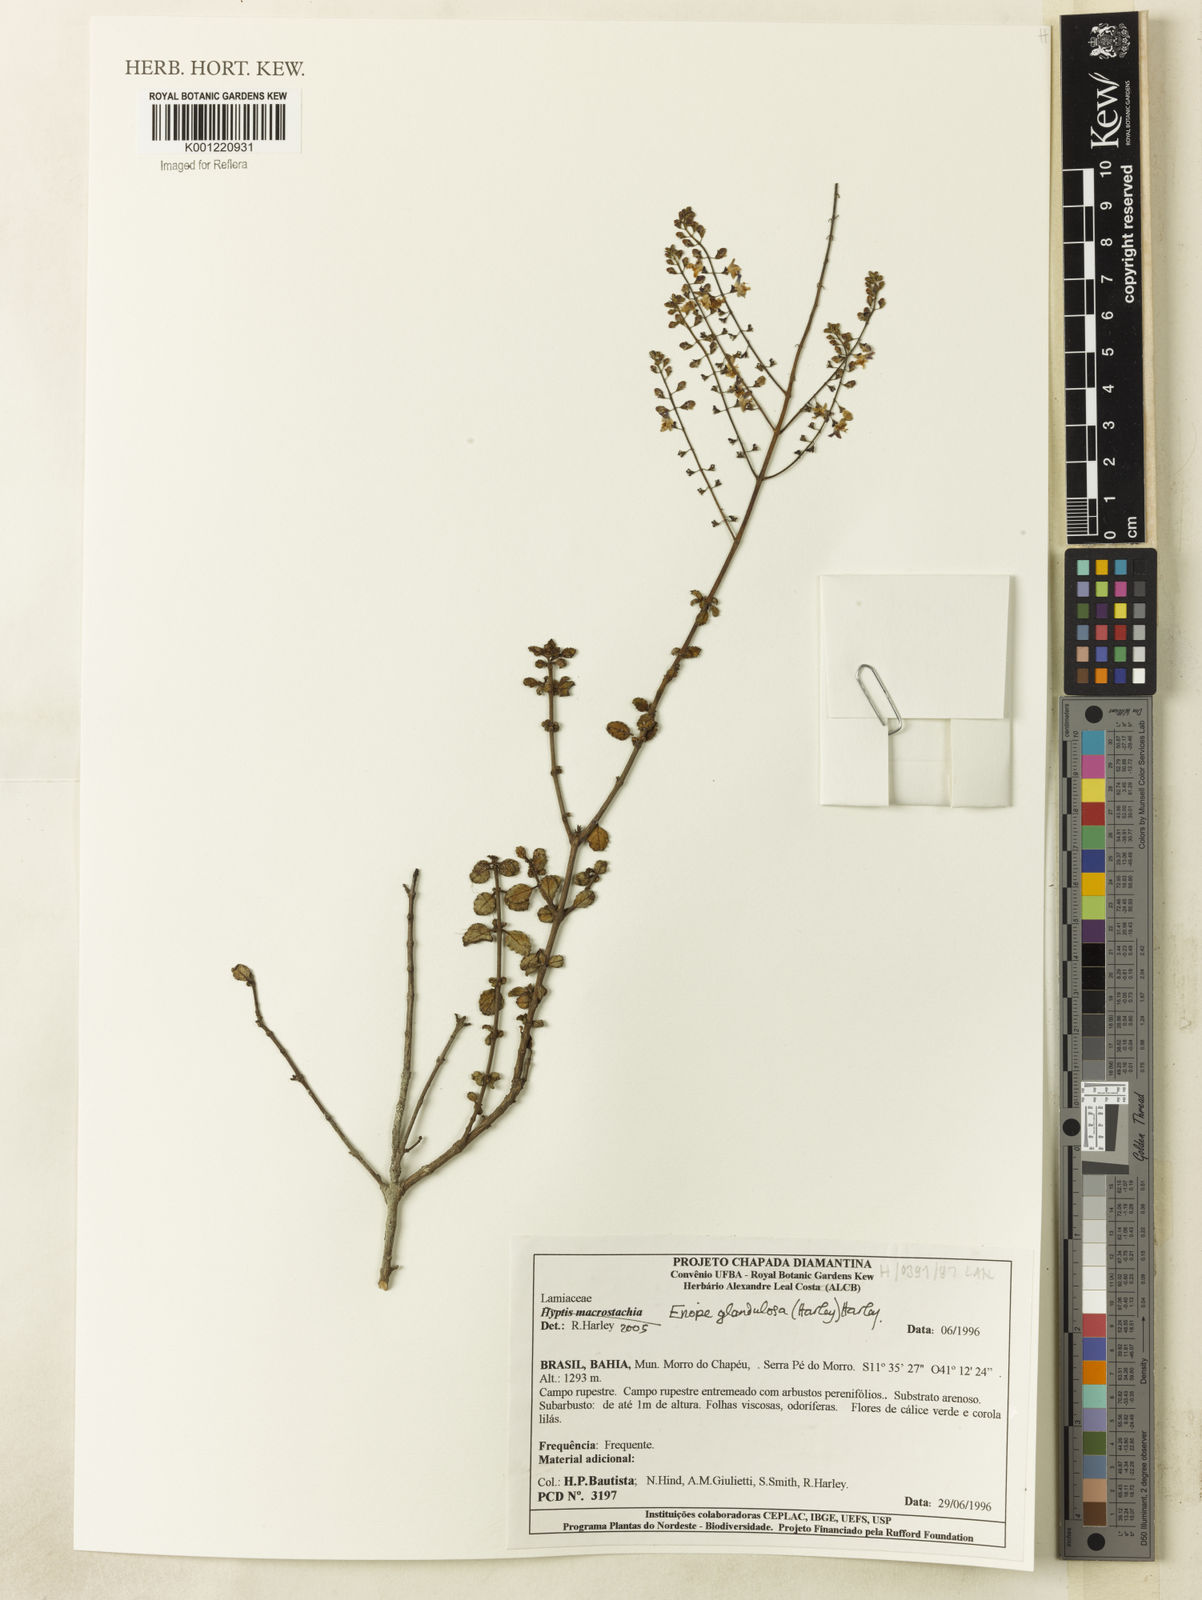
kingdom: Plantae
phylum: Tracheophyta
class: Magnoliopsida
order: Lamiales
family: Lamiaceae
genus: Eriope
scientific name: Eriope glandulosa
